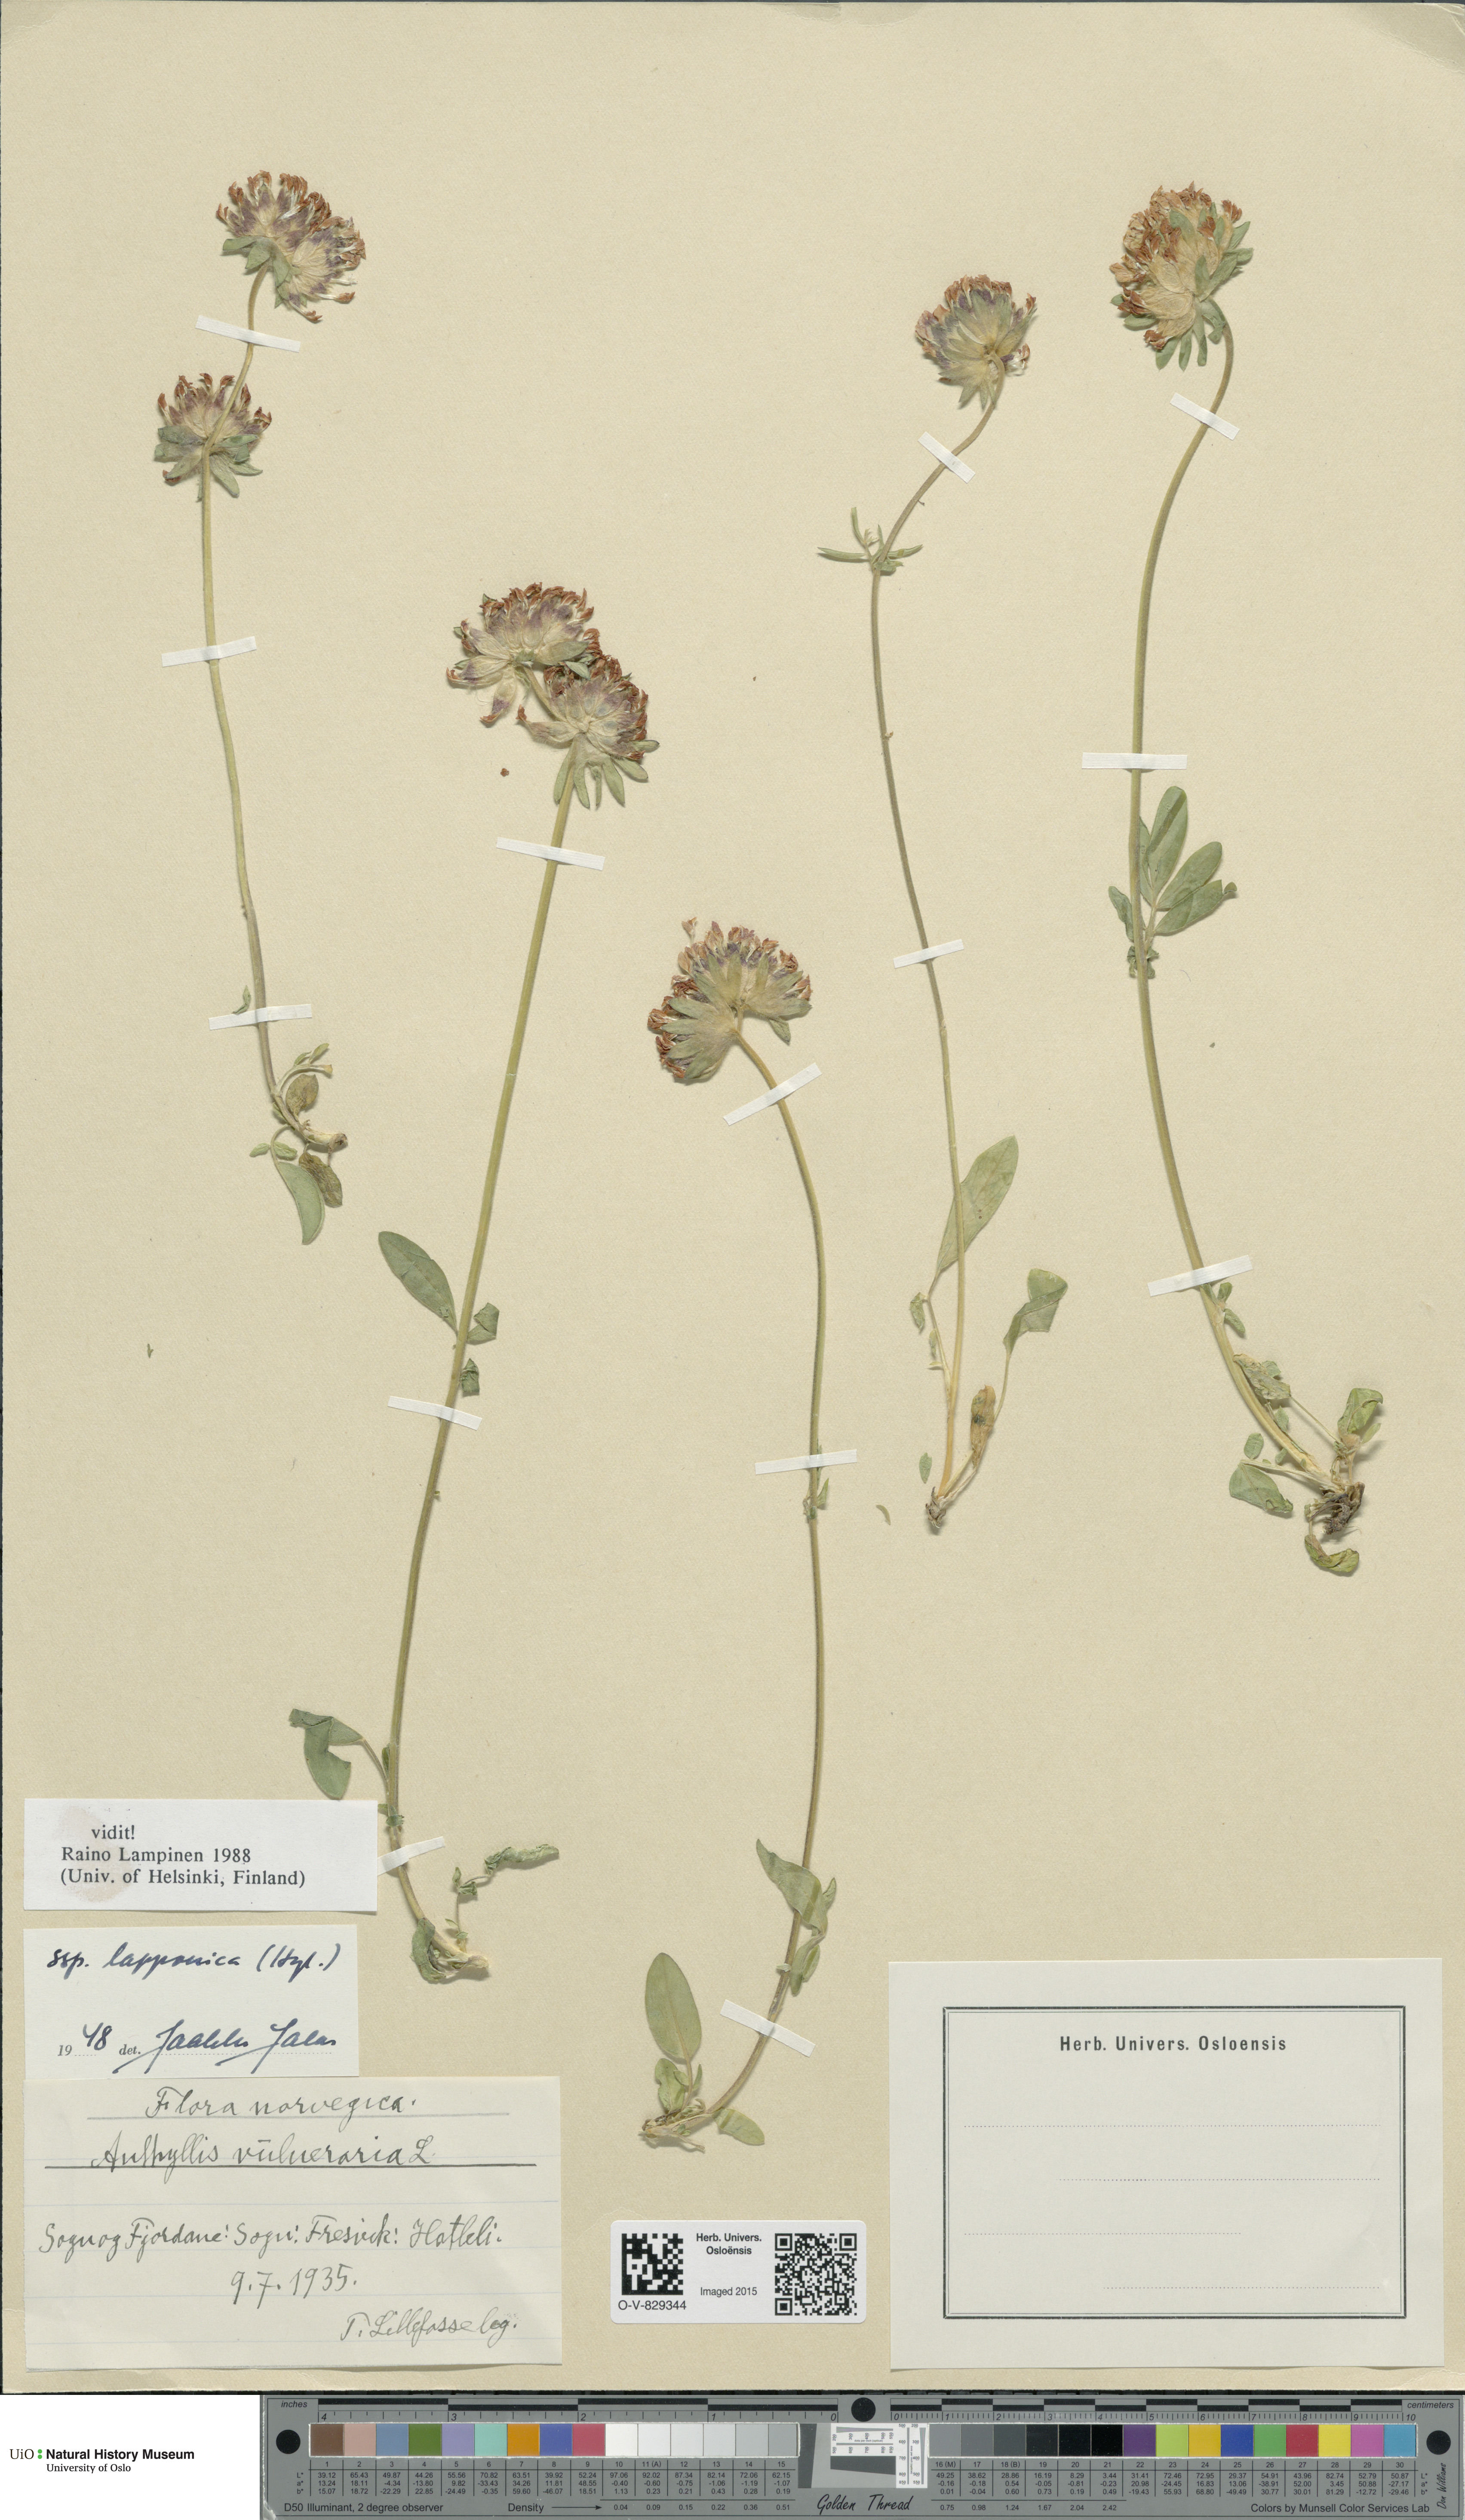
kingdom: Plantae
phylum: Tracheophyta
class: Magnoliopsida
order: Fabales
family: Fabaceae
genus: Anthyllis
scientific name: Anthyllis vulneraria
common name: Kidney vetch
